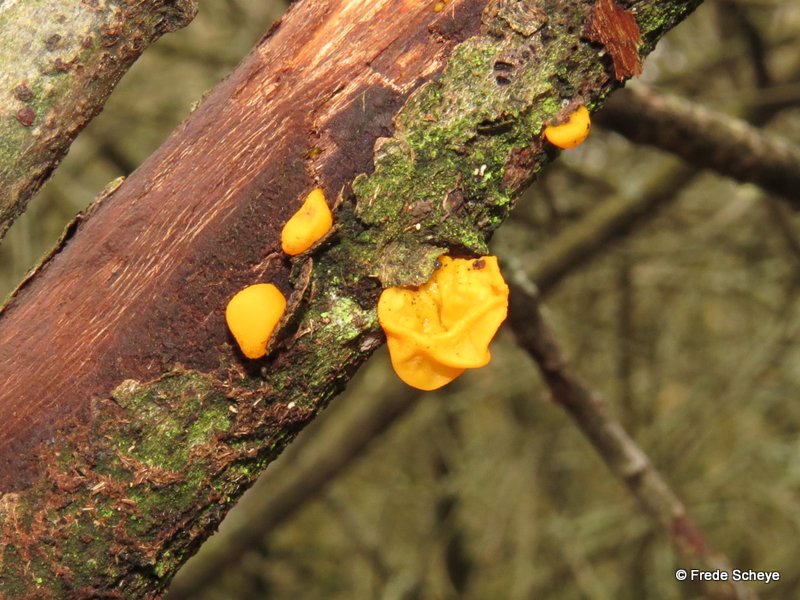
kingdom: Fungi
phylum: Basidiomycota
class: Tremellomycetes
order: Tremellales
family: Tremellaceae
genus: Tremella
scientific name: Tremella mesenterica
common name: gul bævresvamp
